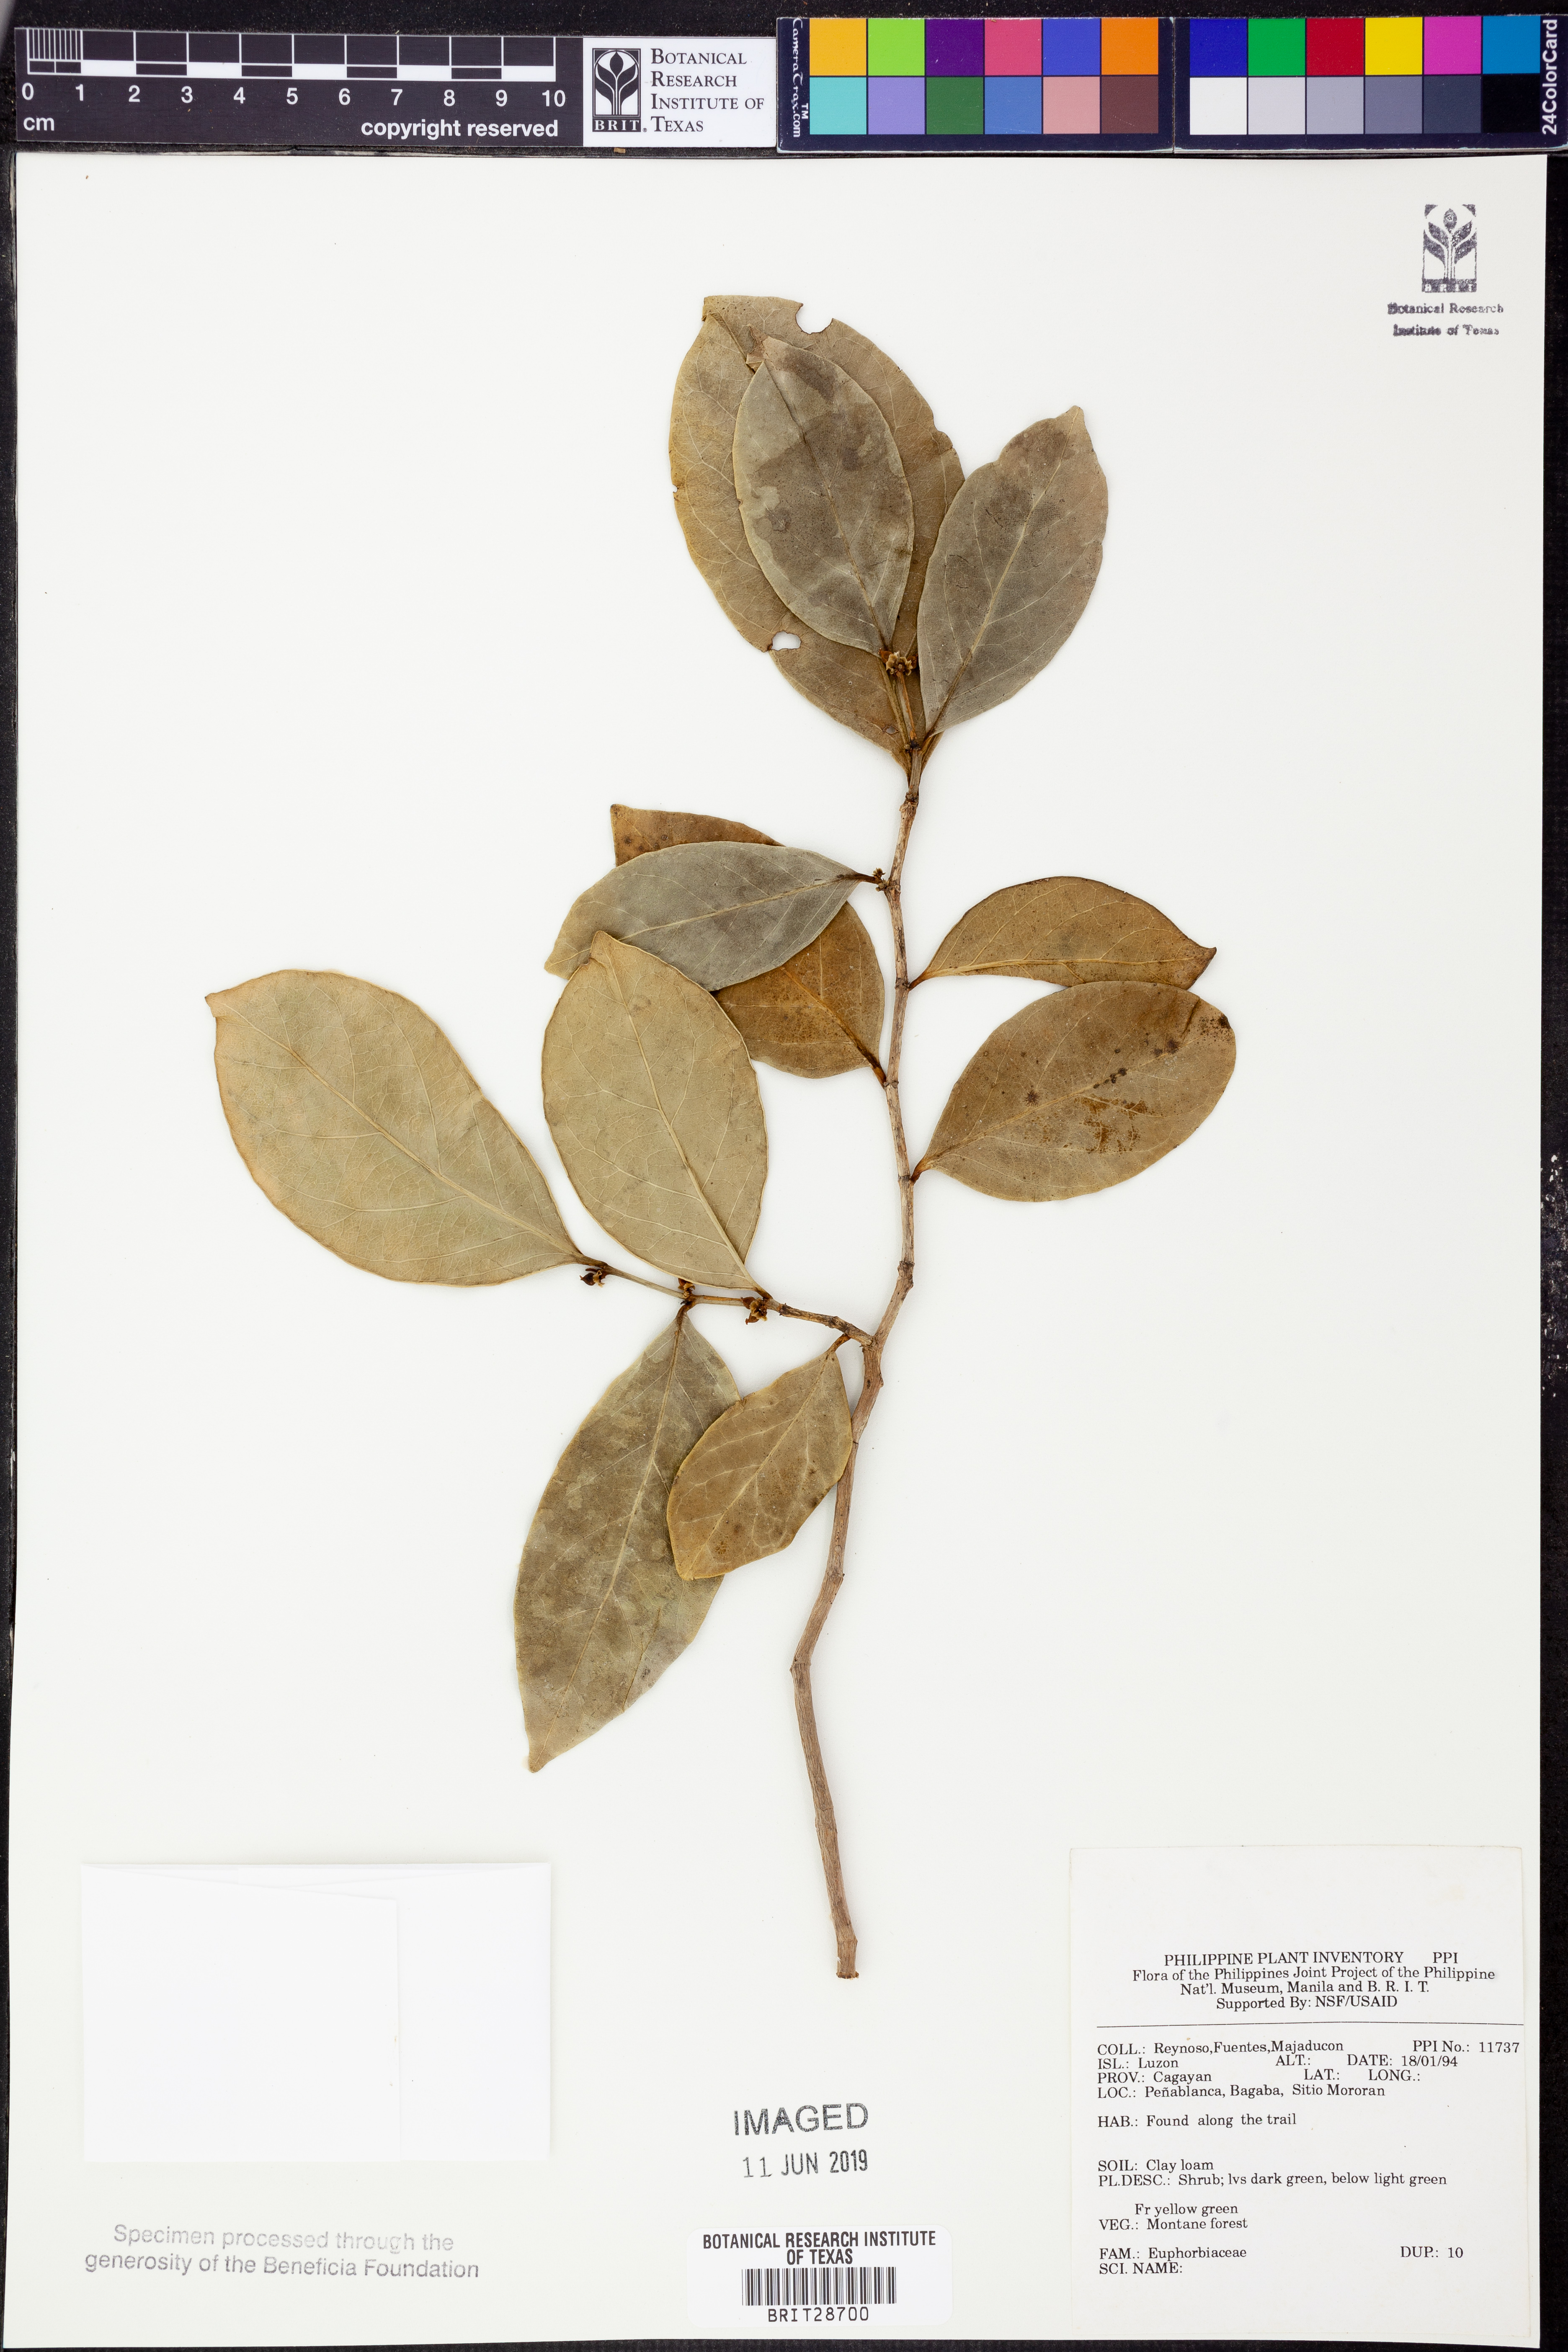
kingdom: Plantae
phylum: Tracheophyta
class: Magnoliopsida
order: Malpighiales
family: Euphorbiaceae
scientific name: Euphorbiaceae
